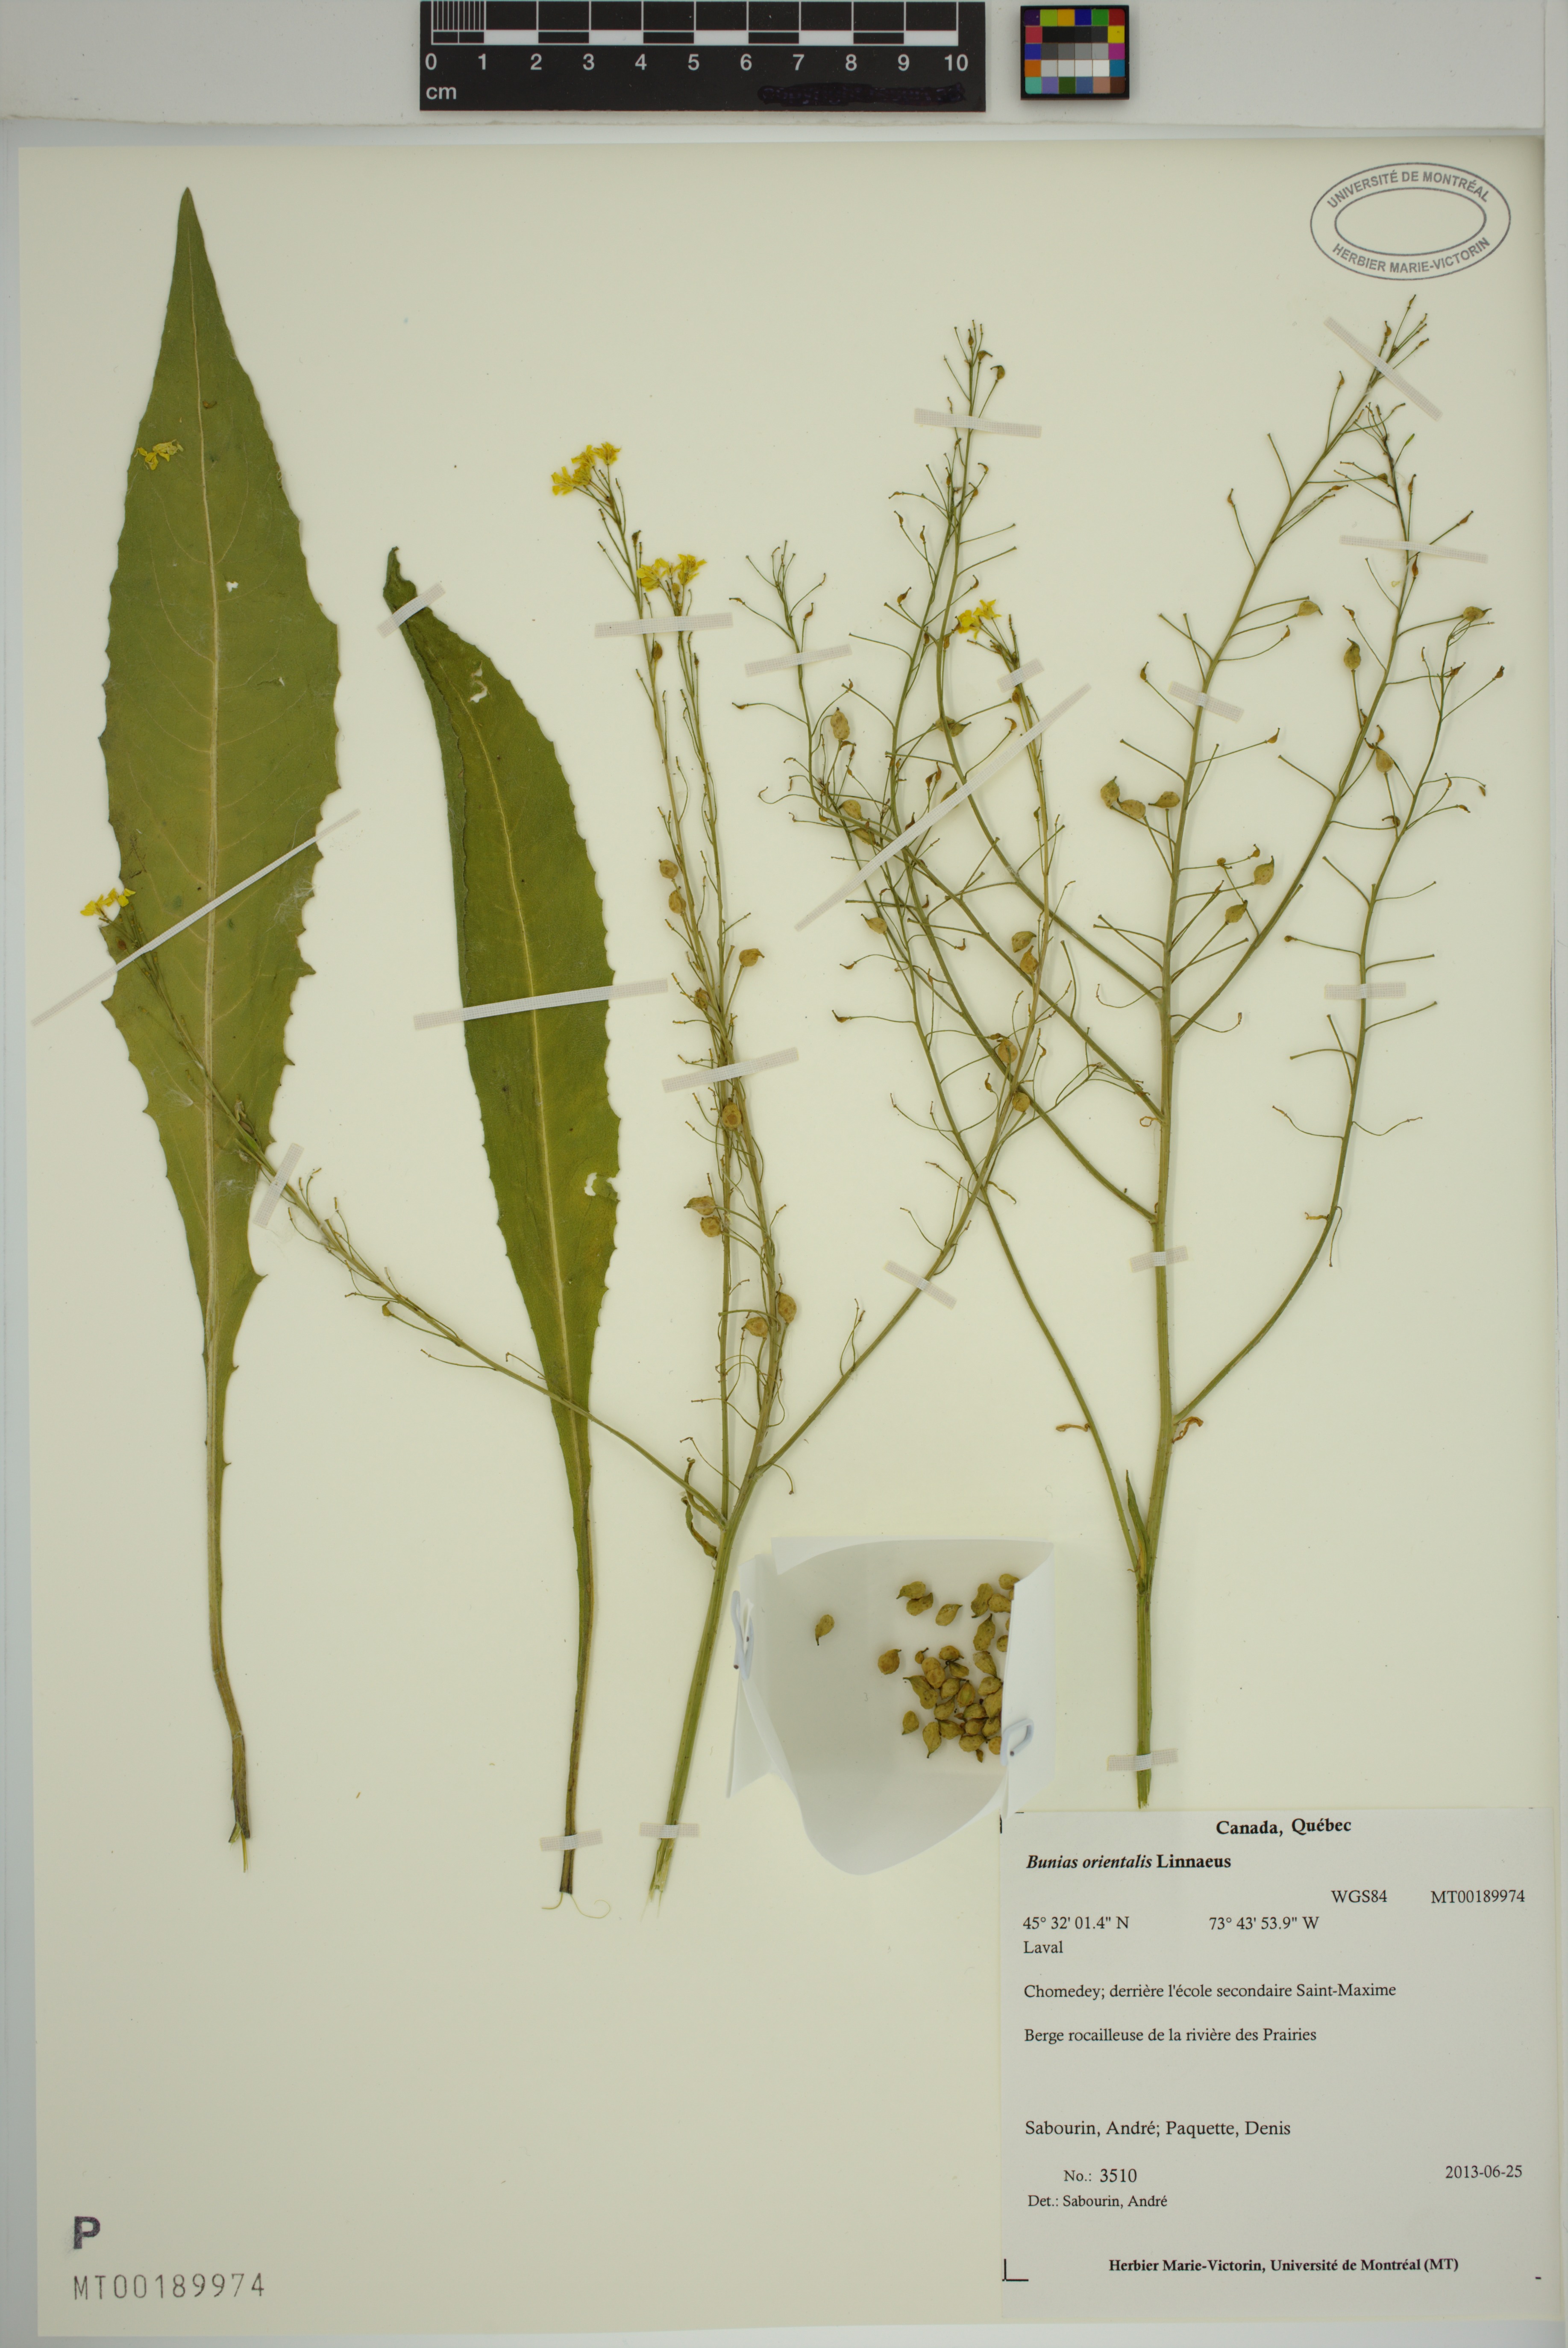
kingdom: Plantae
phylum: Tracheophyta
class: Magnoliopsida
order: Brassicales
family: Brassicaceae
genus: Bunias
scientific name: Bunias orientalis
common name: Warty-cabbage
